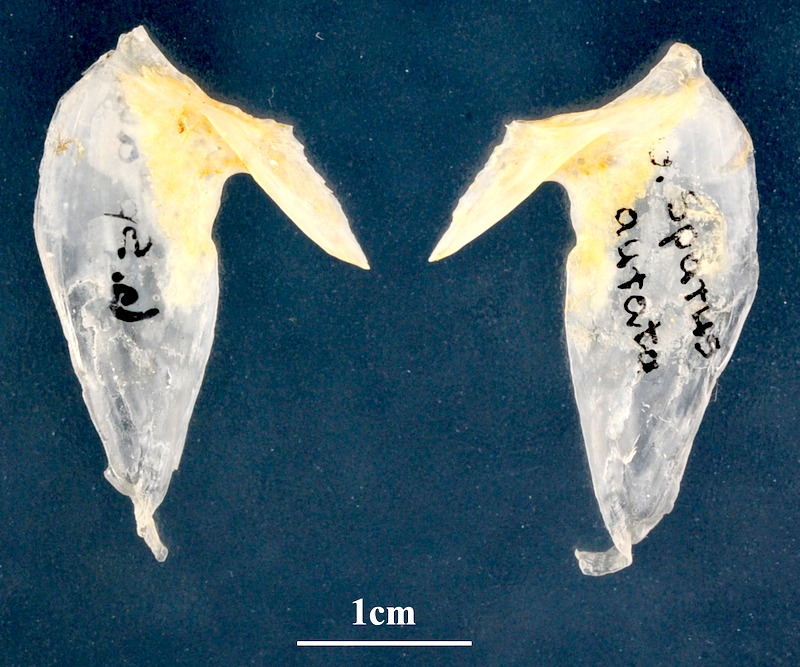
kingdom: Animalia
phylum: Chordata
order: Perciformes
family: Sparidae
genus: Sparus
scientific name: Sparus aurata
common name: Gilthead
